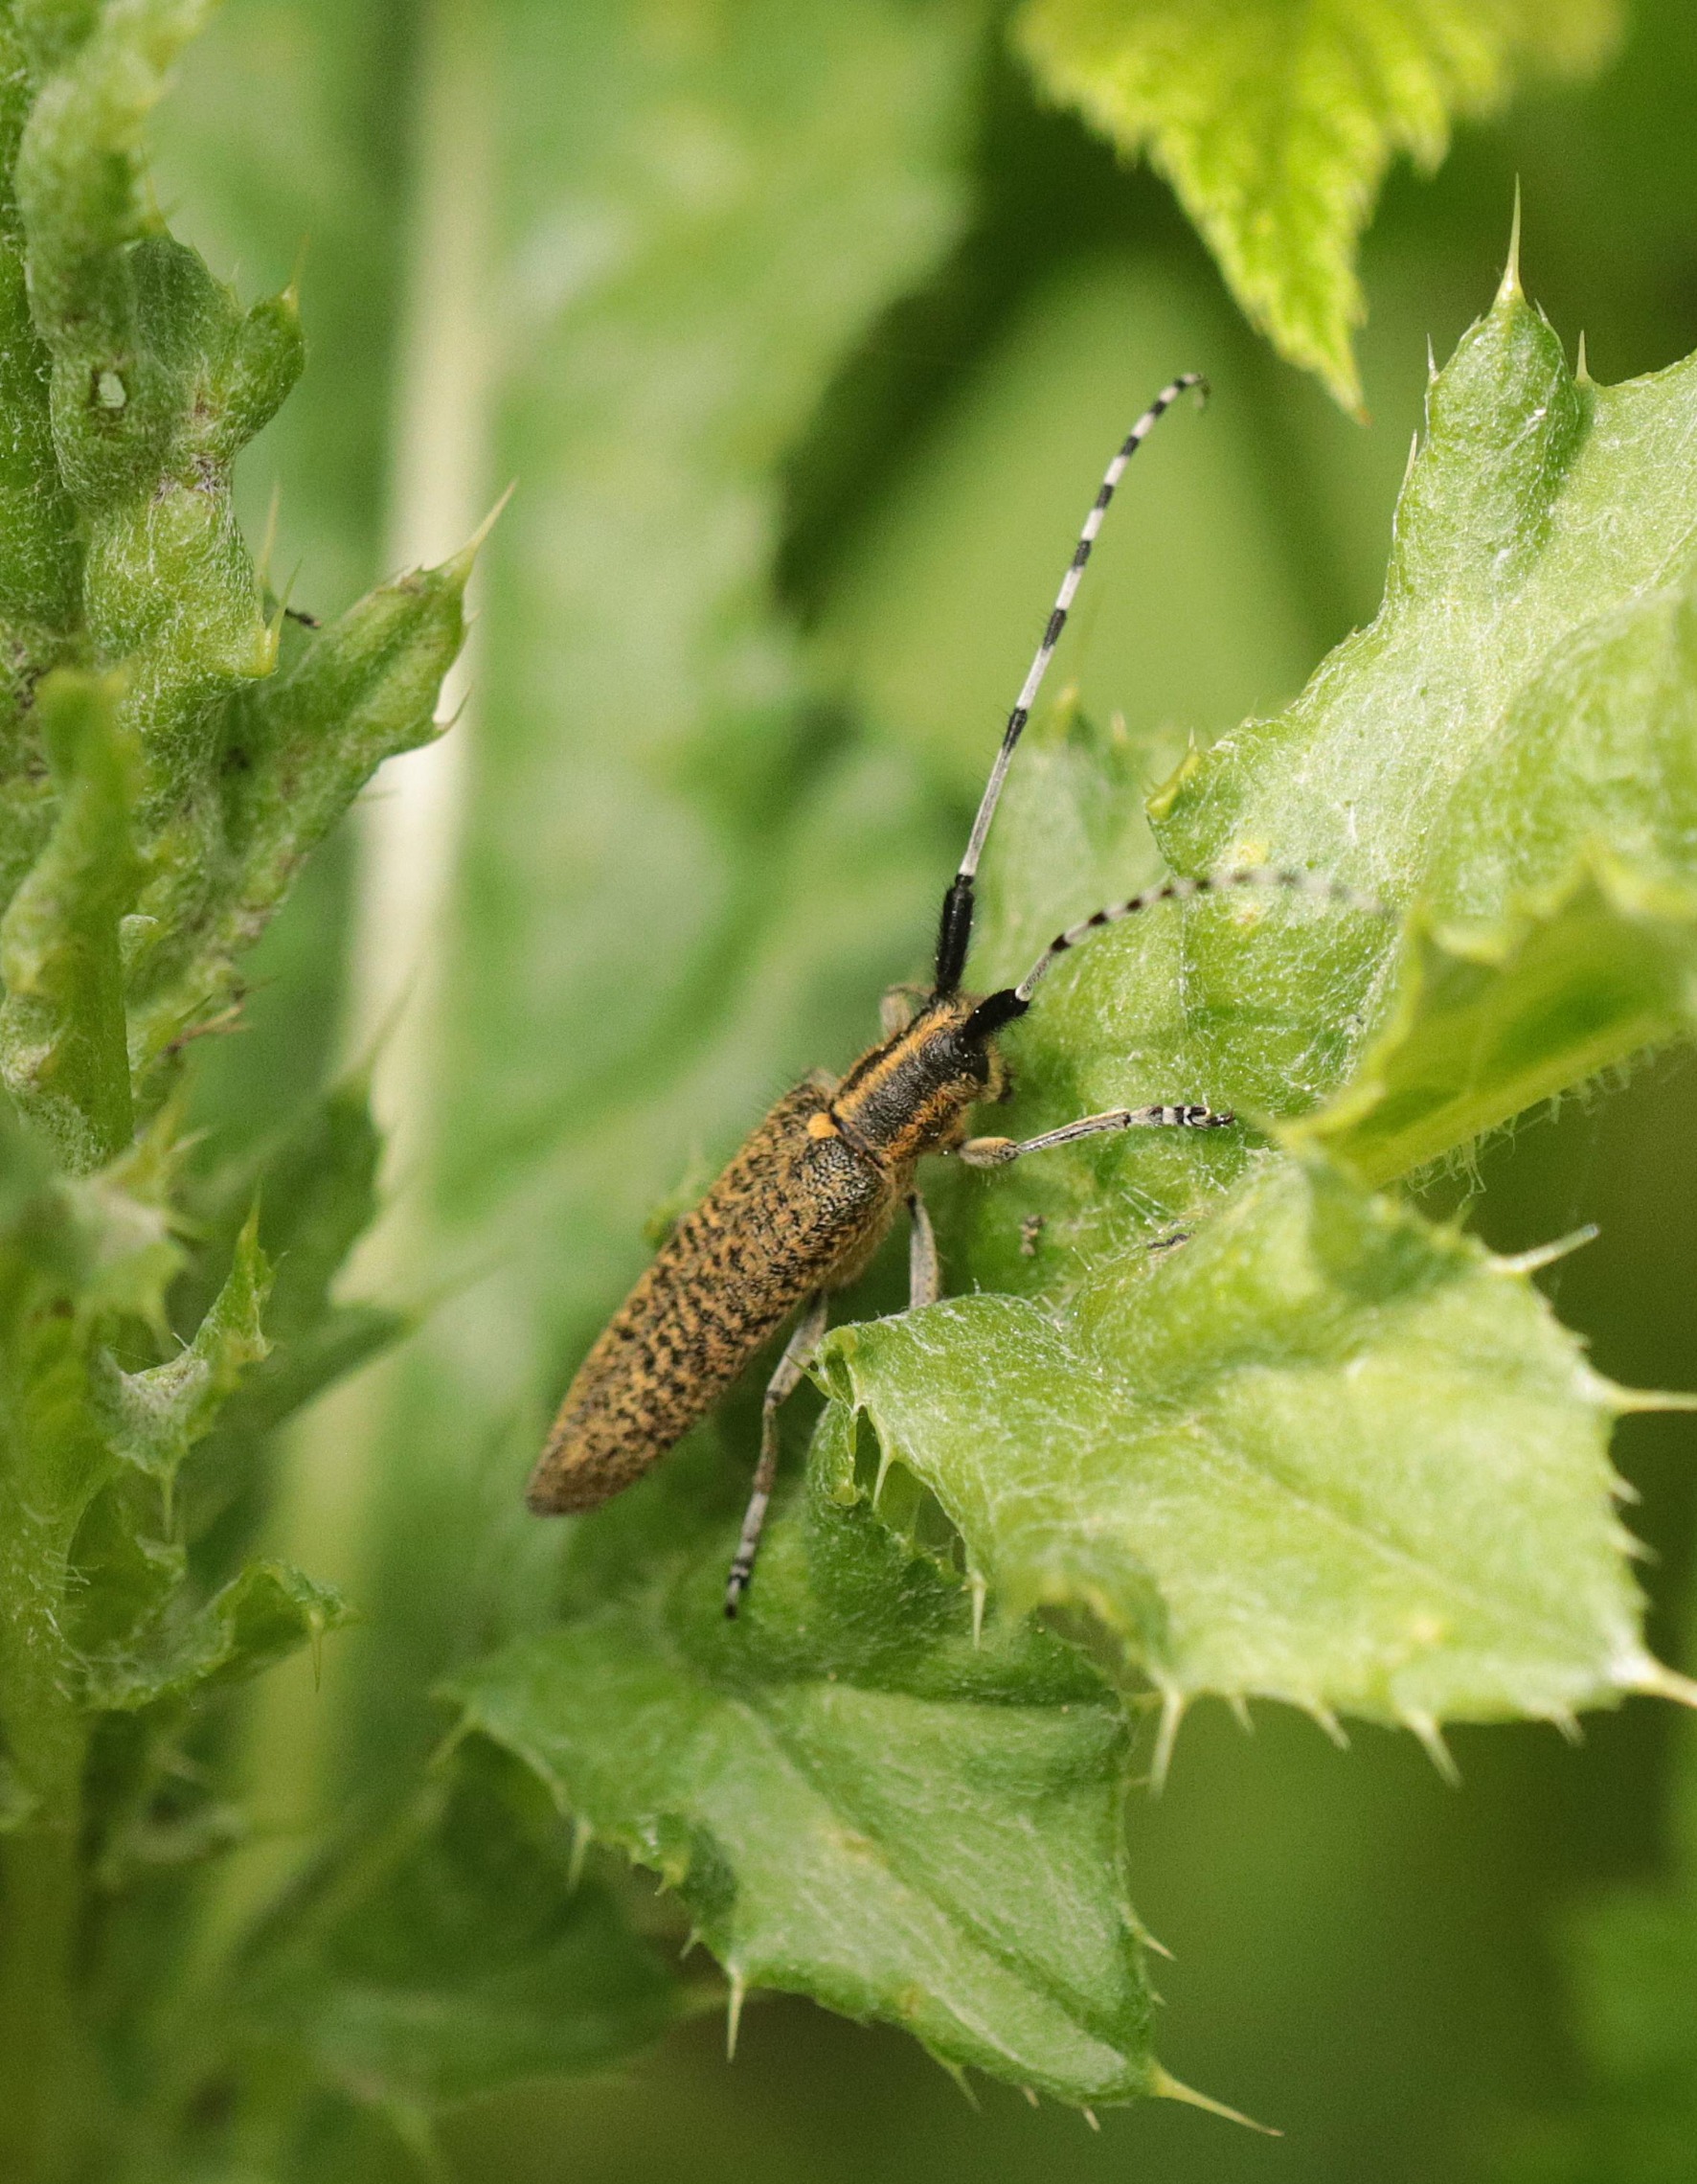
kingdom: Animalia
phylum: Arthropoda
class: Insecta
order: Coleoptera
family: Cerambycidae
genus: Agapanthia
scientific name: Agapanthia villosoviridescens
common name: Tidselbuk
